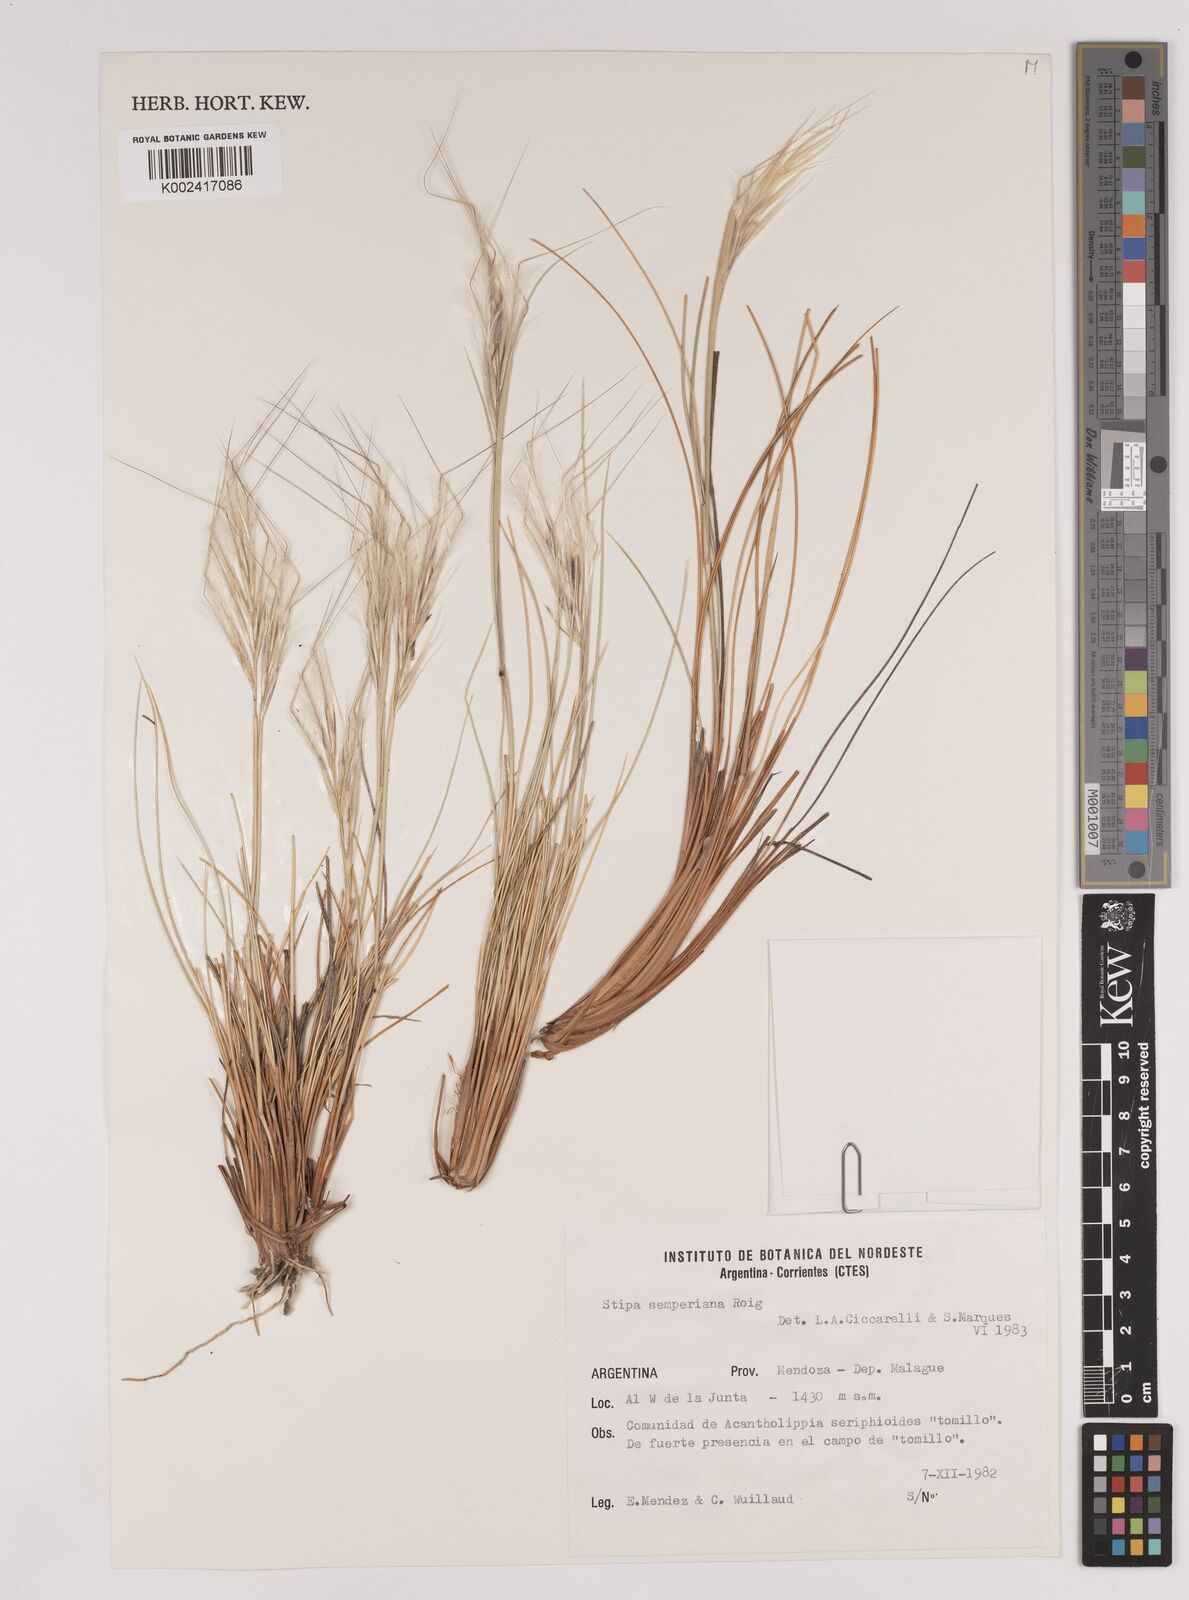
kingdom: Plantae
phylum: Tracheophyta
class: Liliopsida
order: Poales
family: Poaceae
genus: Pappostipa
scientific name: Pappostipa semperiana
